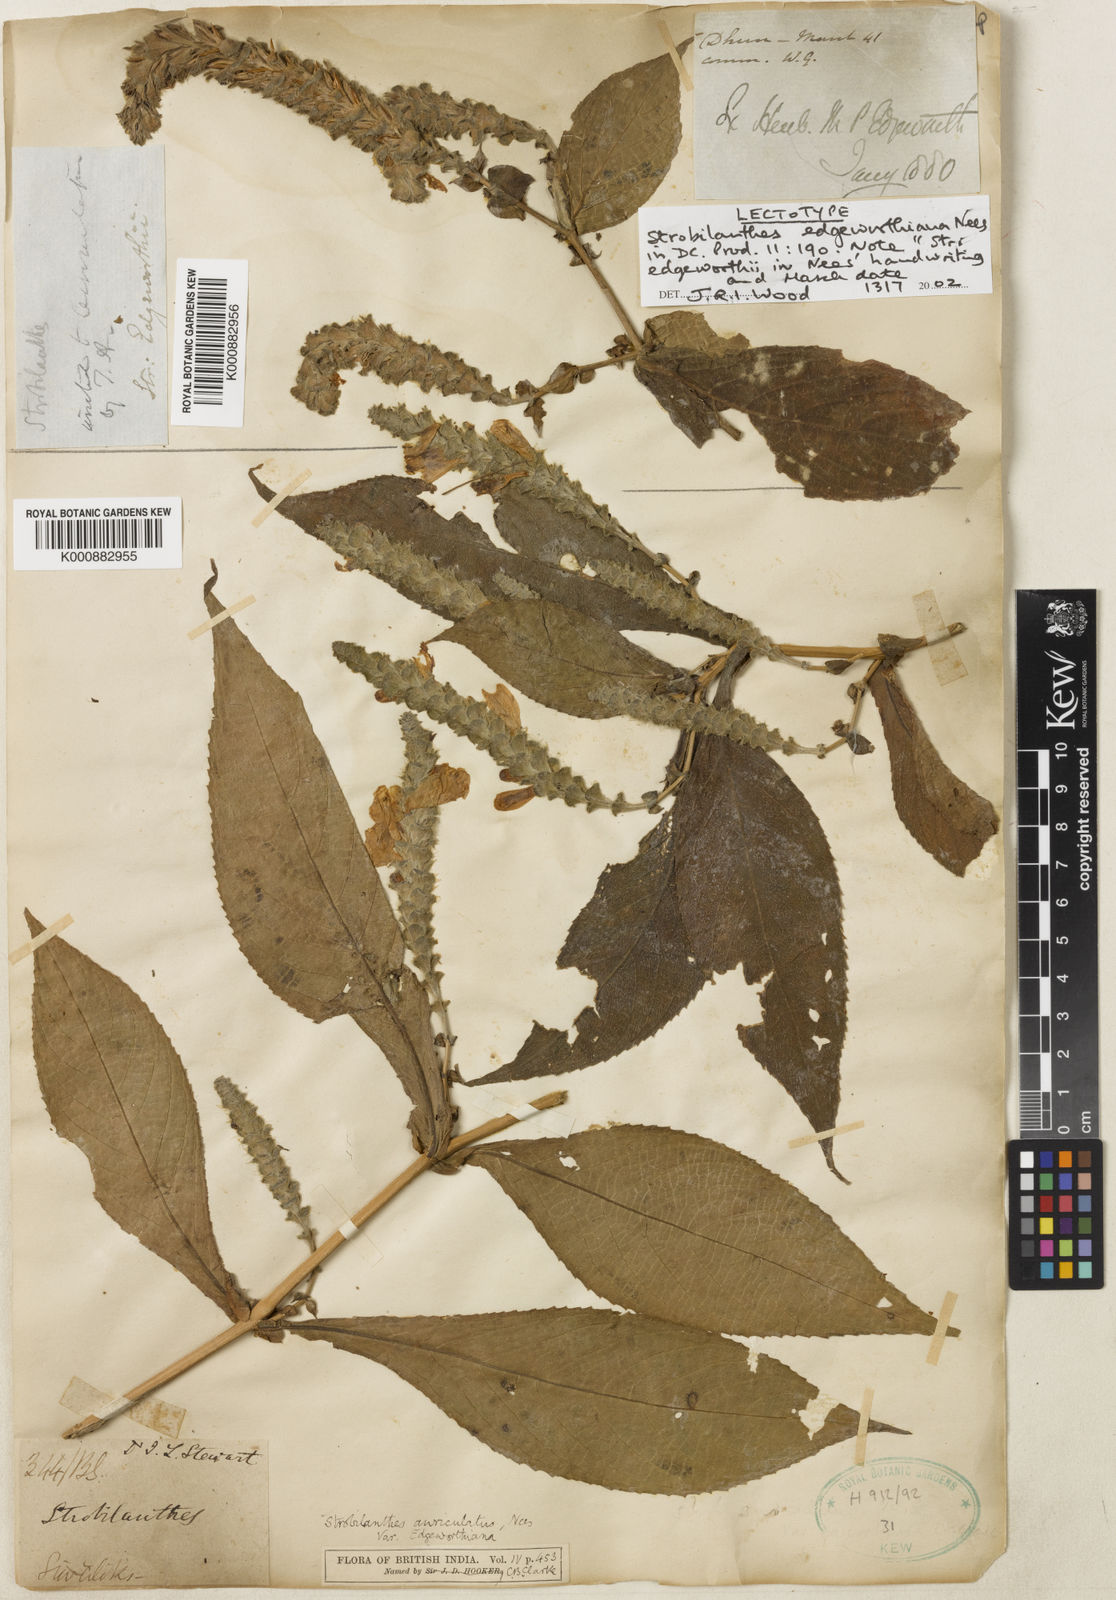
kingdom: Plantae
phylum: Tracheophyta
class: Magnoliopsida
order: Lamiales
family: Acanthaceae
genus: Strobilanthes
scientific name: Strobilanthes auriculata
